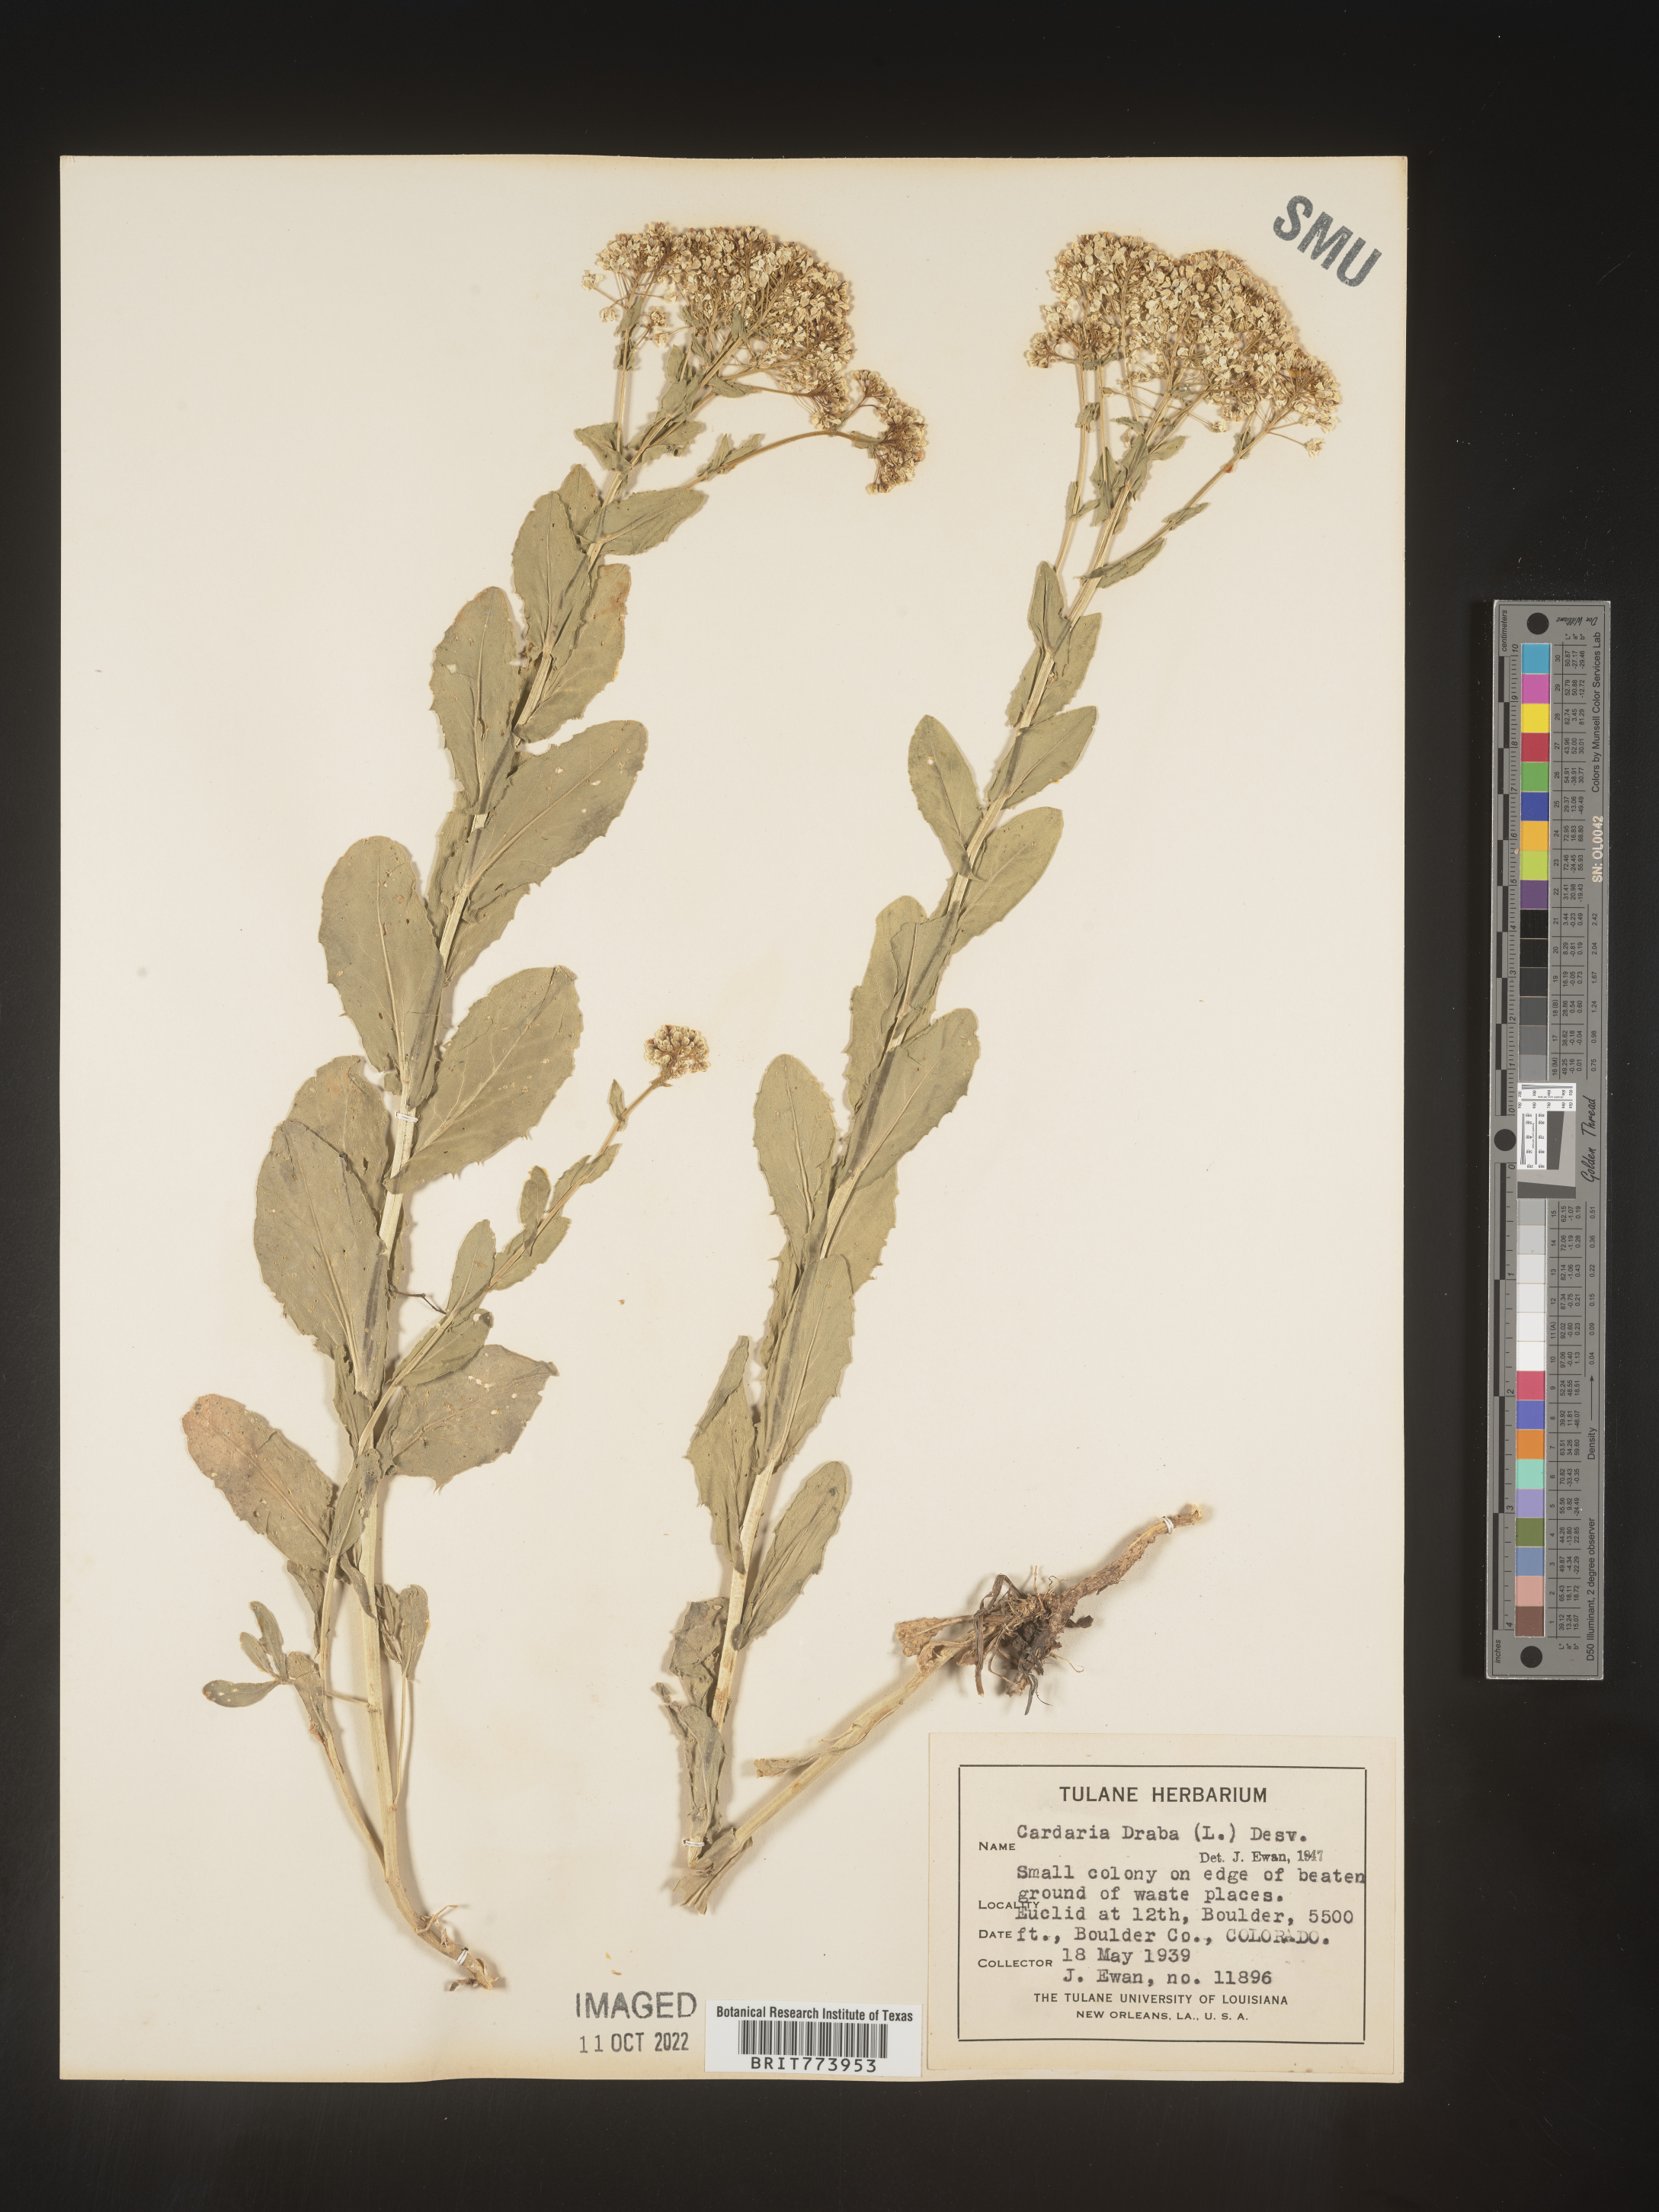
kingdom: Plantae
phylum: Tracheophyta
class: Magnoliopsida
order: Brassicales
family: Brassicaceae
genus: Lepidium
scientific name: Lepidium draba
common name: Hoary cress
